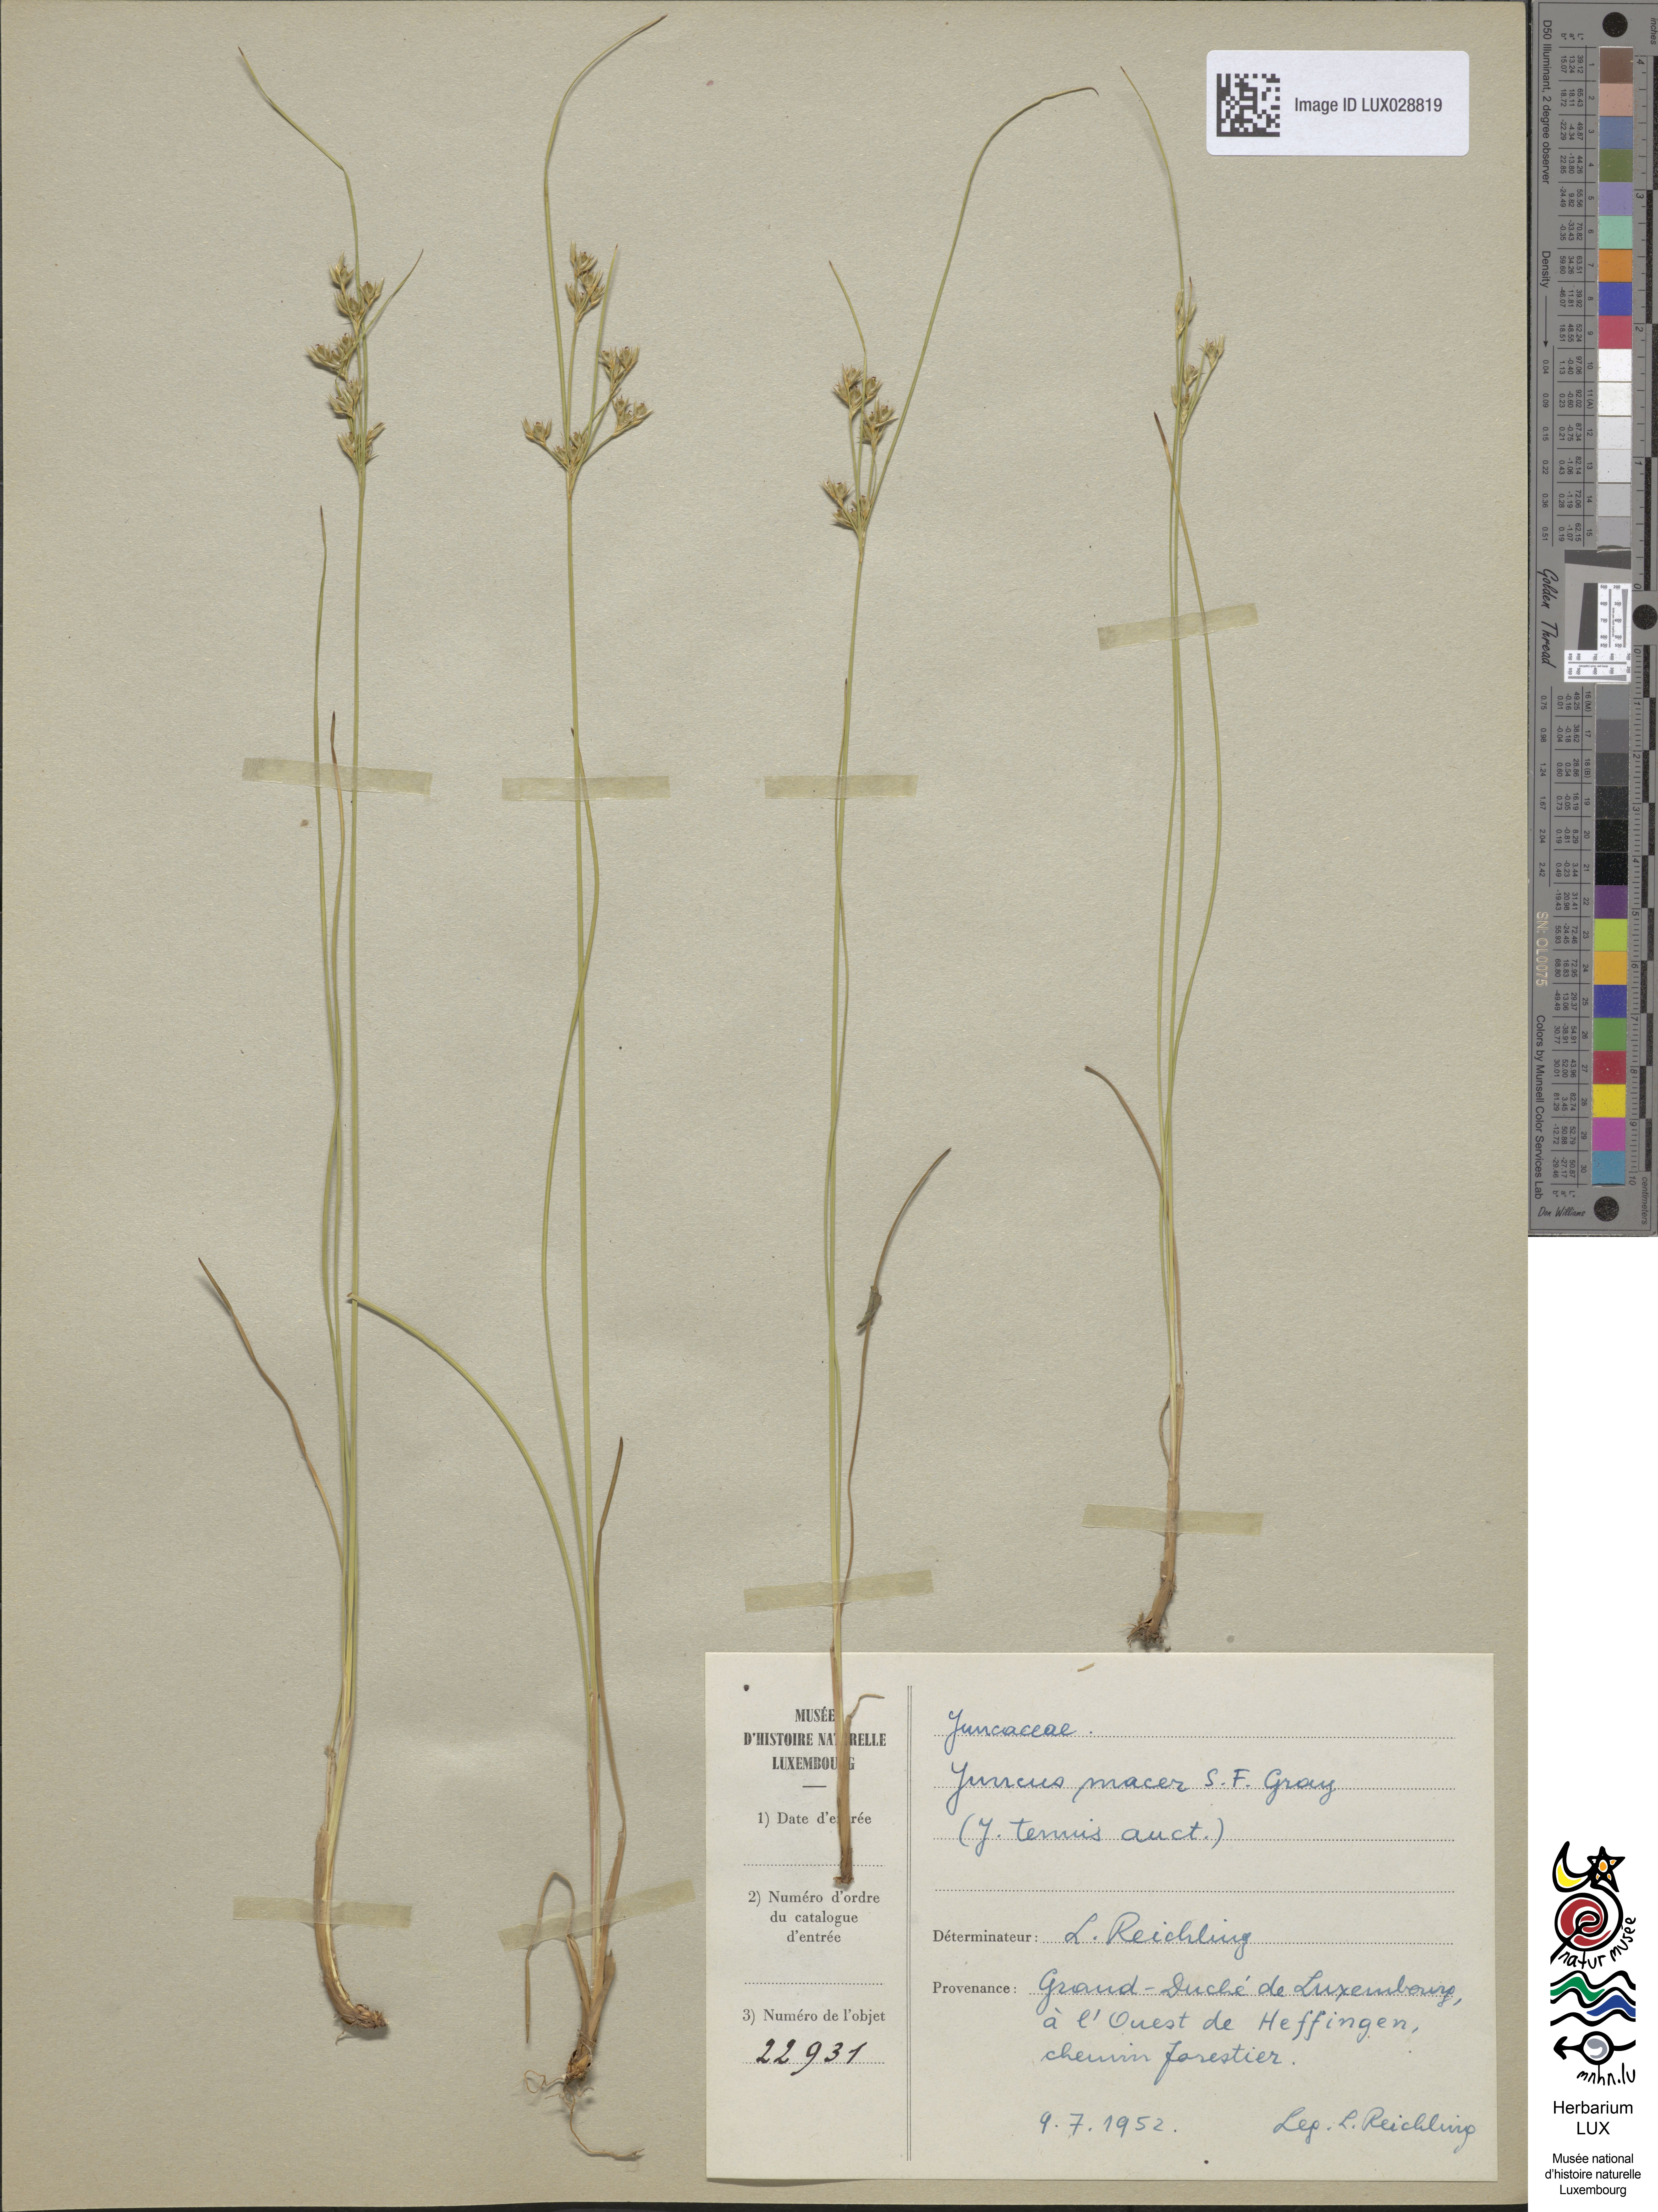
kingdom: Plantae
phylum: Tracheophyta
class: Liliopsida
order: Poales
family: Juncaceae
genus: Juncus
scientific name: Juncus tenuis
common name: Slender rush
